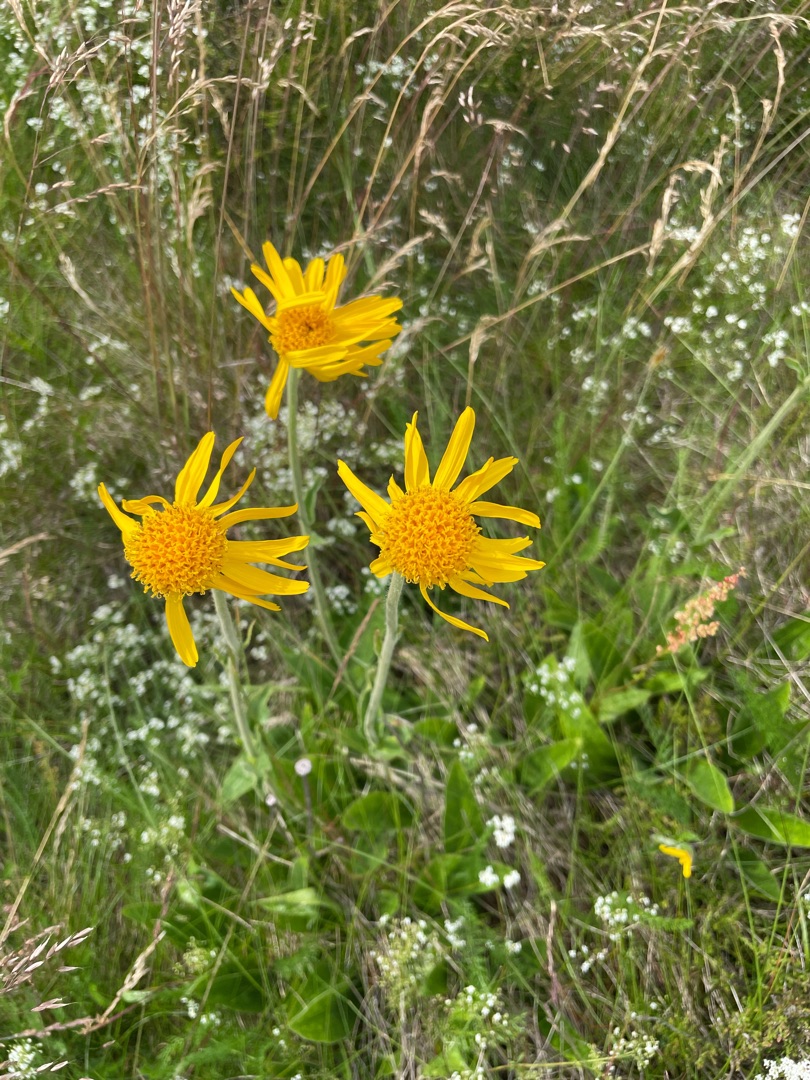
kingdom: Plantae
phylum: Tracheophyta
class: Magnoliopsida
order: Asterales
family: Asteraceae
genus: Arnica
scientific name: Arnica montana
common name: Guldblomme
